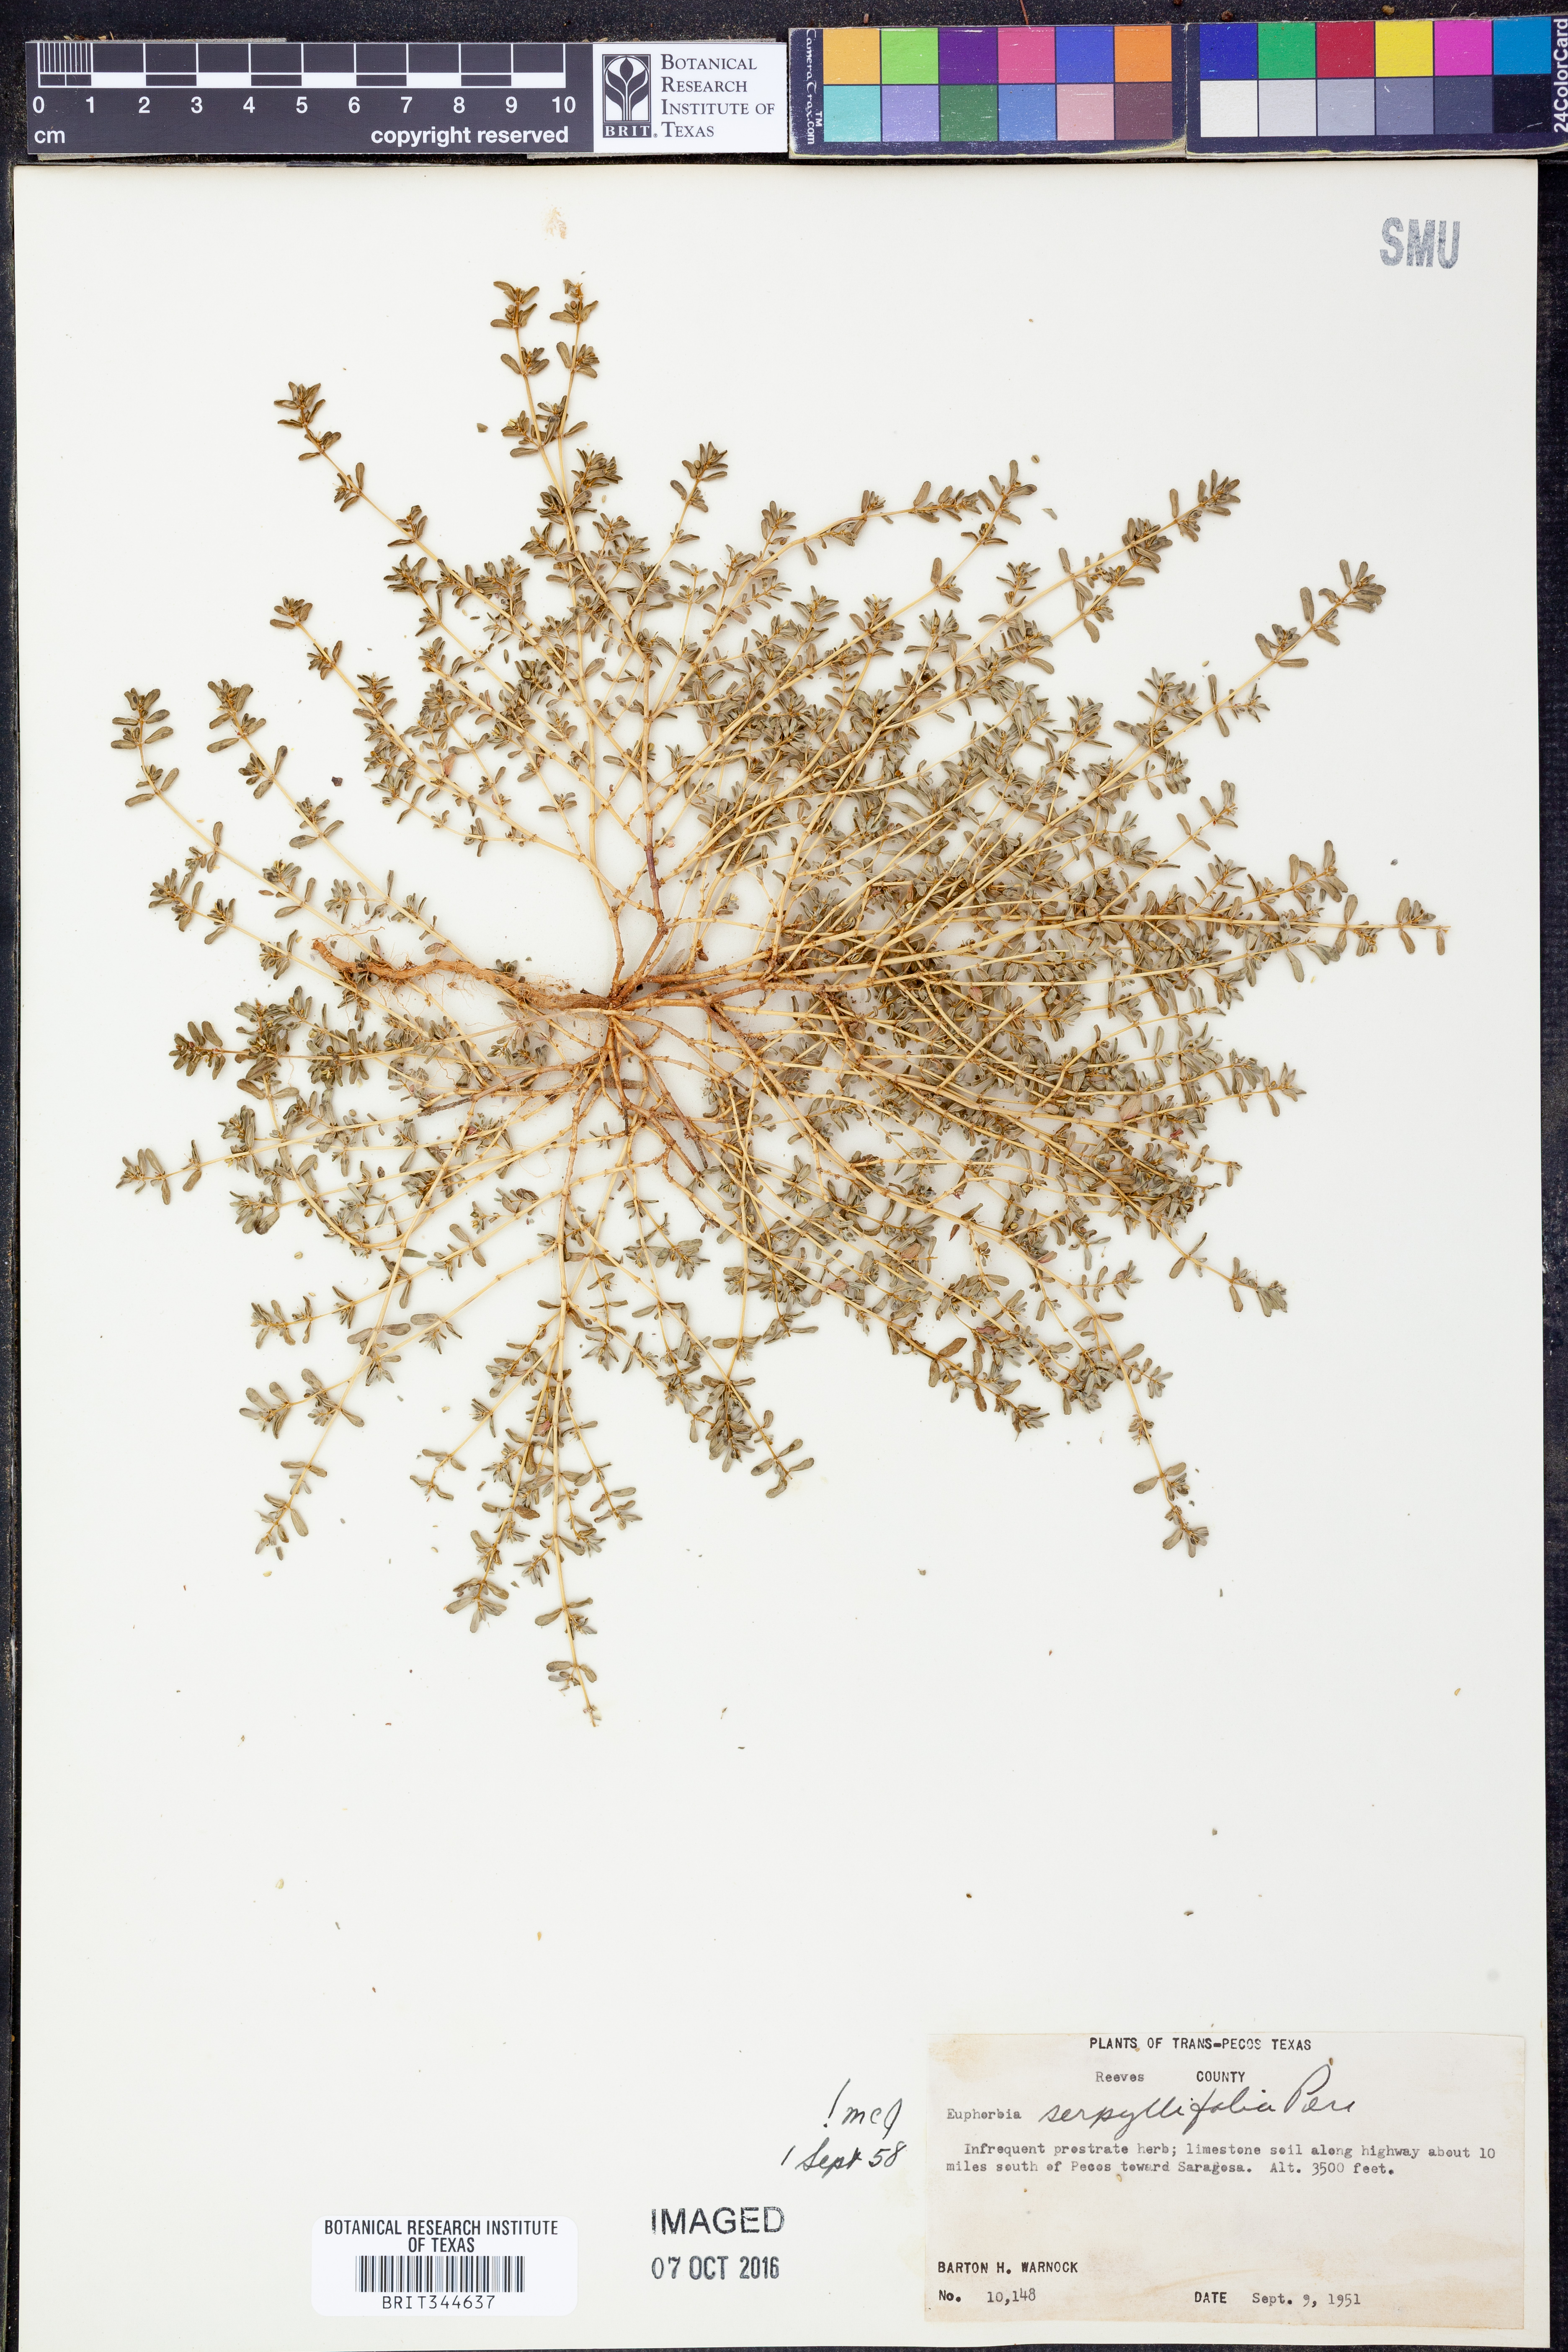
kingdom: Plantae
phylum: Tracheophyta
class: Magnoliopsida
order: Malpighiales
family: Euphorbiaceae
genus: Euphorbia
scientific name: Euphorbia serpillifolia
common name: Thyme-leaf spurge
